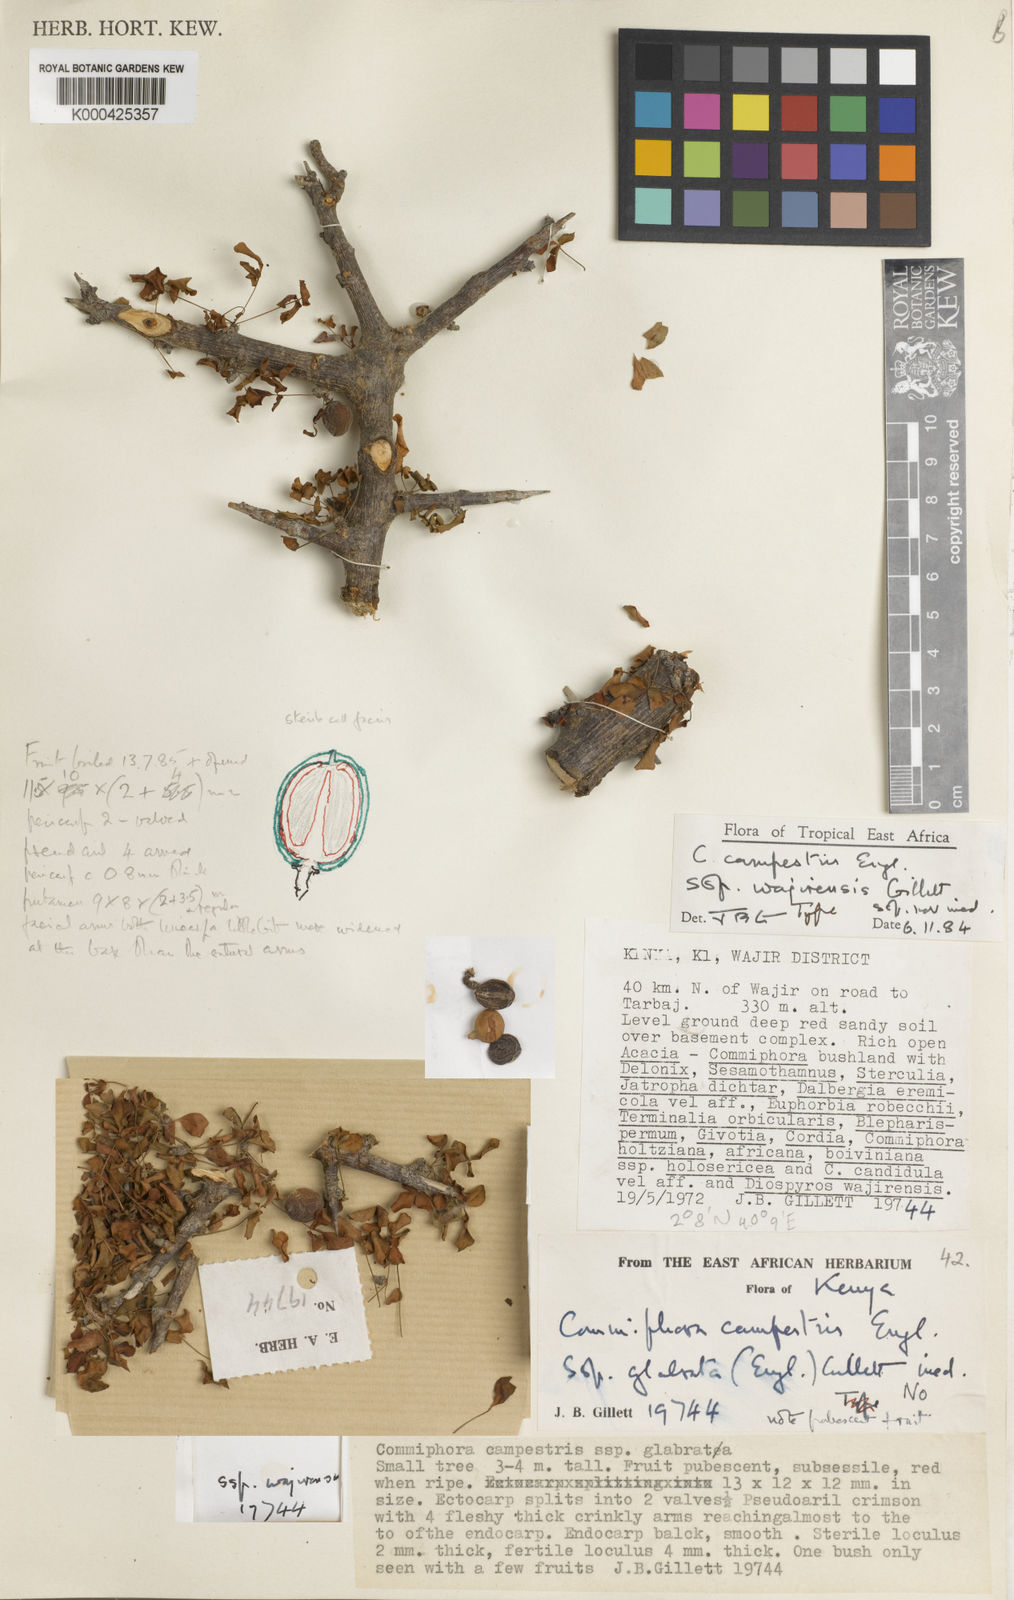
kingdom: Plantae
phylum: Tracheophyta
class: Magnoliopsida
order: Sapindales
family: Burseraceae
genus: Commiphora
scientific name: Commiphora campestris
